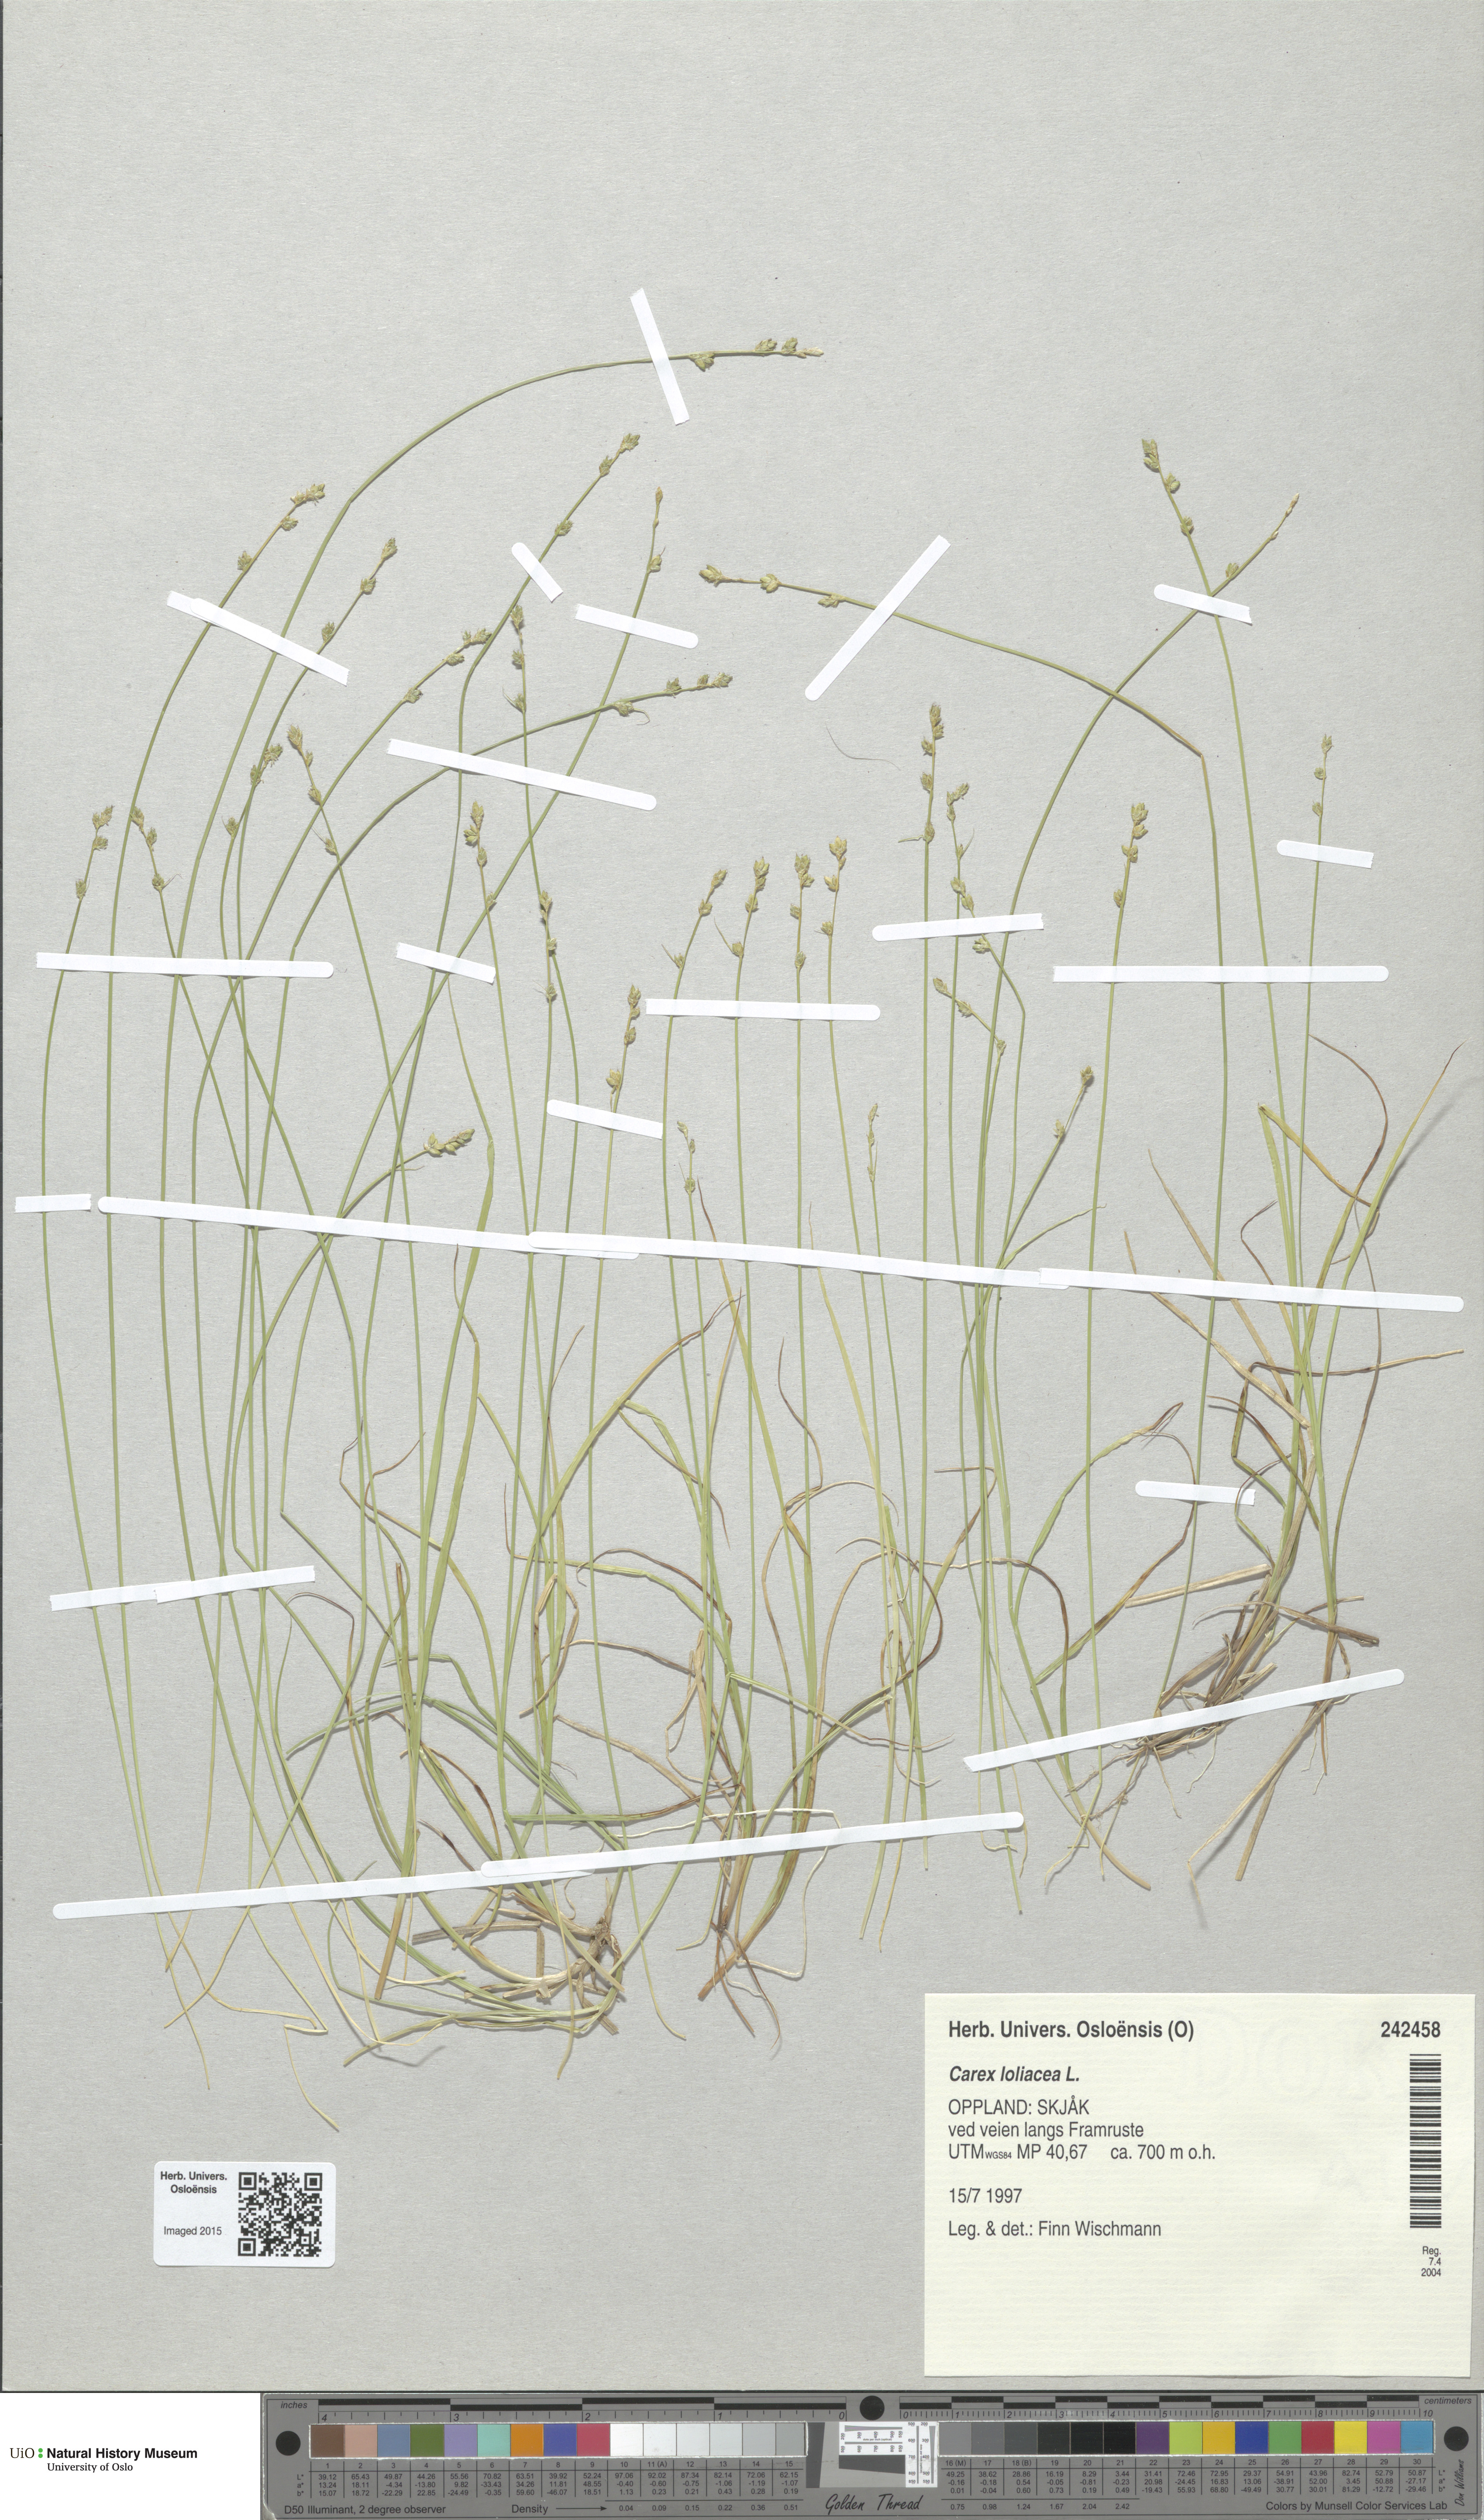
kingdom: Plantae
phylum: Tracheophyta
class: Liliopsida
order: Poales
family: Cyperaceae
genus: Carex
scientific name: Carex loliacea
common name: Ryegrass sedge
